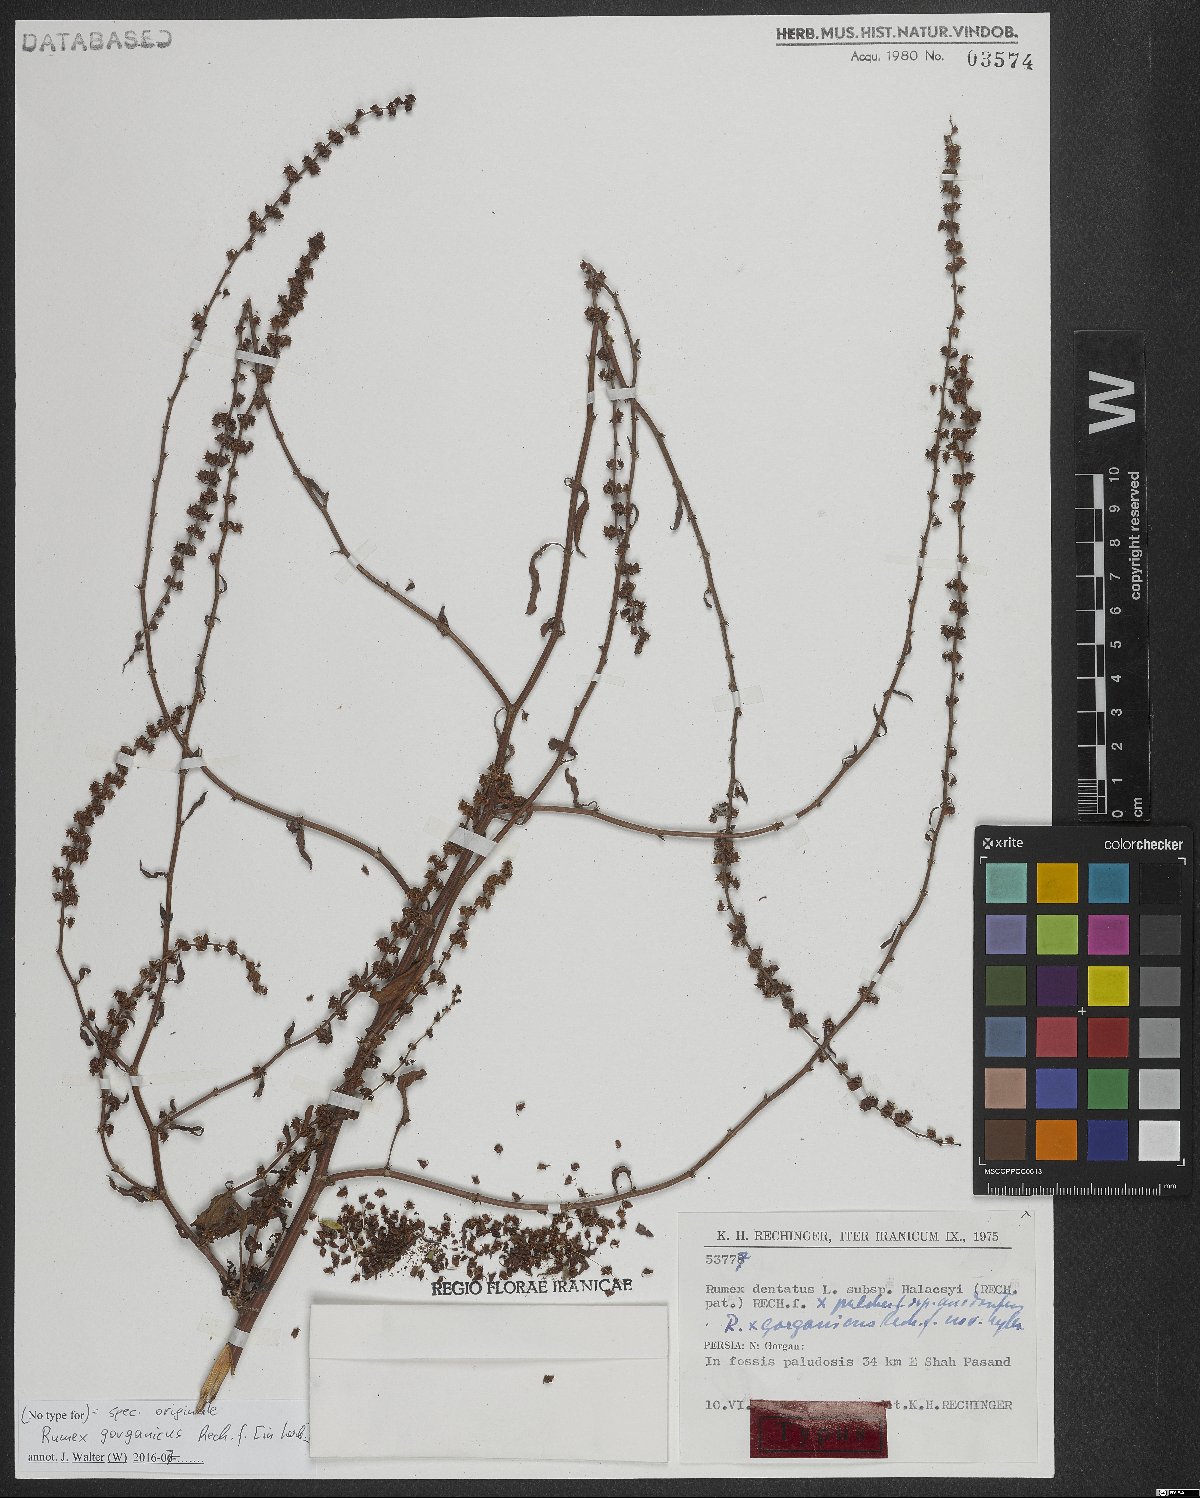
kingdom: Plantae
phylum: Tracheophyta
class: Magnoliopsida
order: Caryophyllales
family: Polygonaceae
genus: Rumex
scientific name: Rumex
